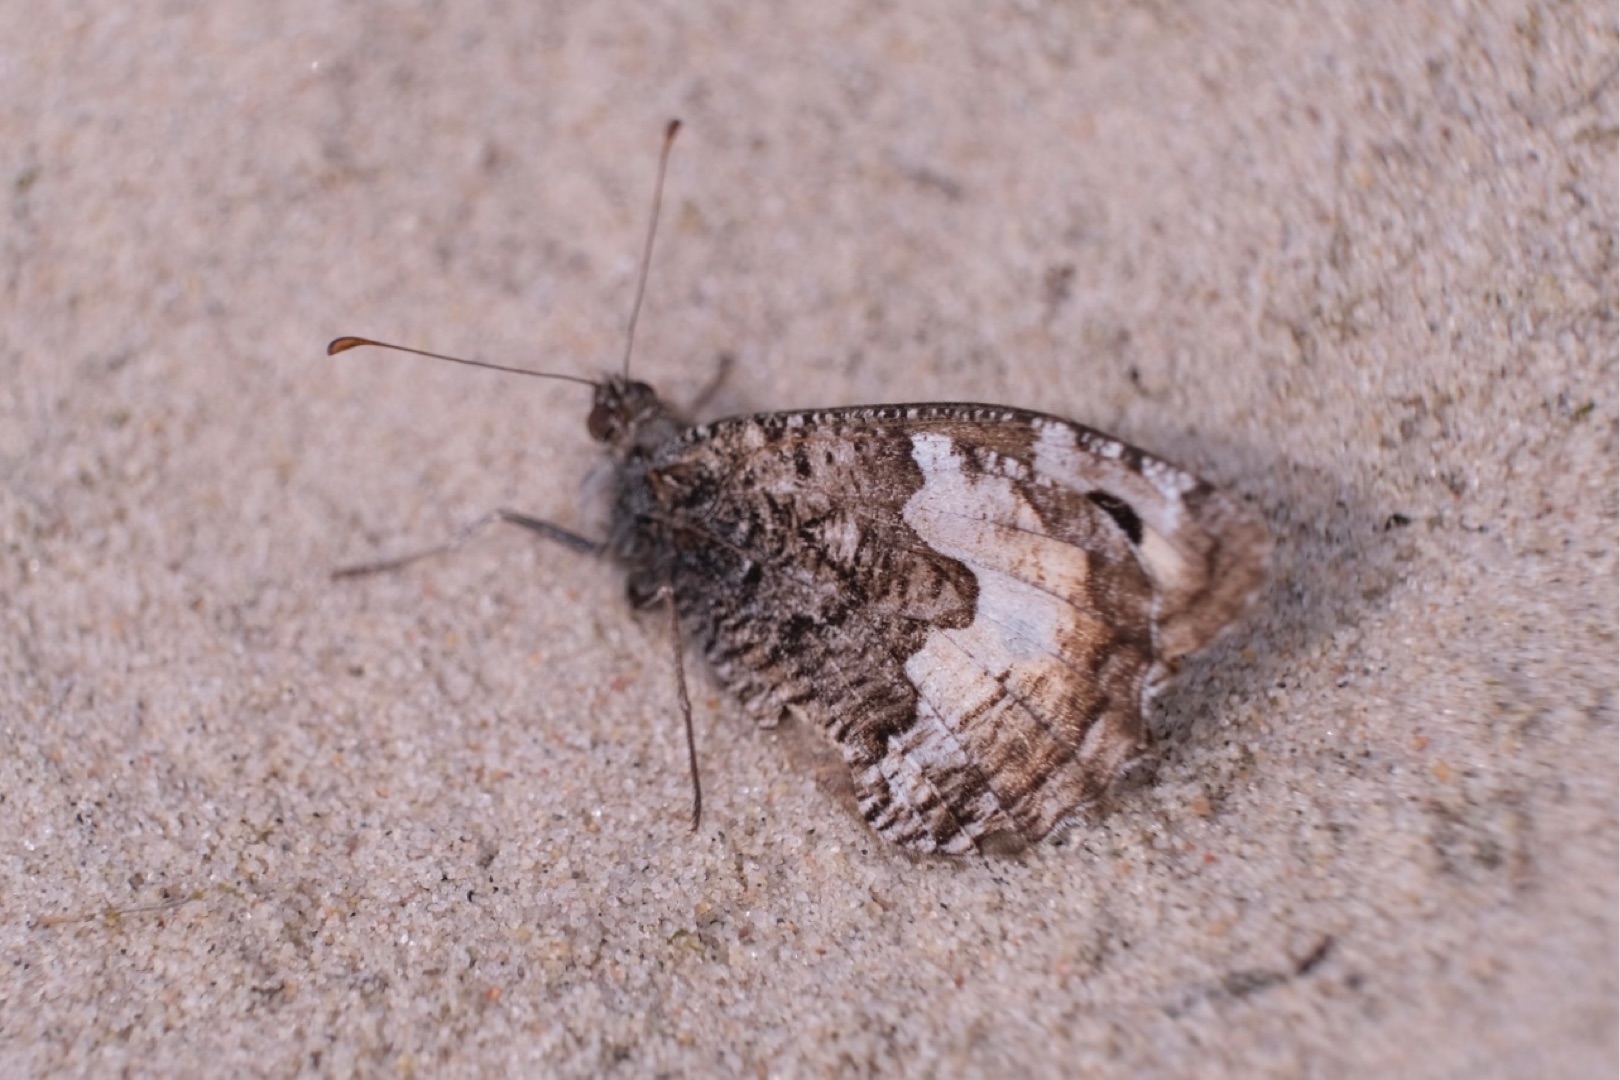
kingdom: Animalia
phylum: Arthropoda
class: Insecta
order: Lepidoptera
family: Nymphalidae
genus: Hipparchia
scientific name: Hipparchia semele
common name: Sandrandøje
